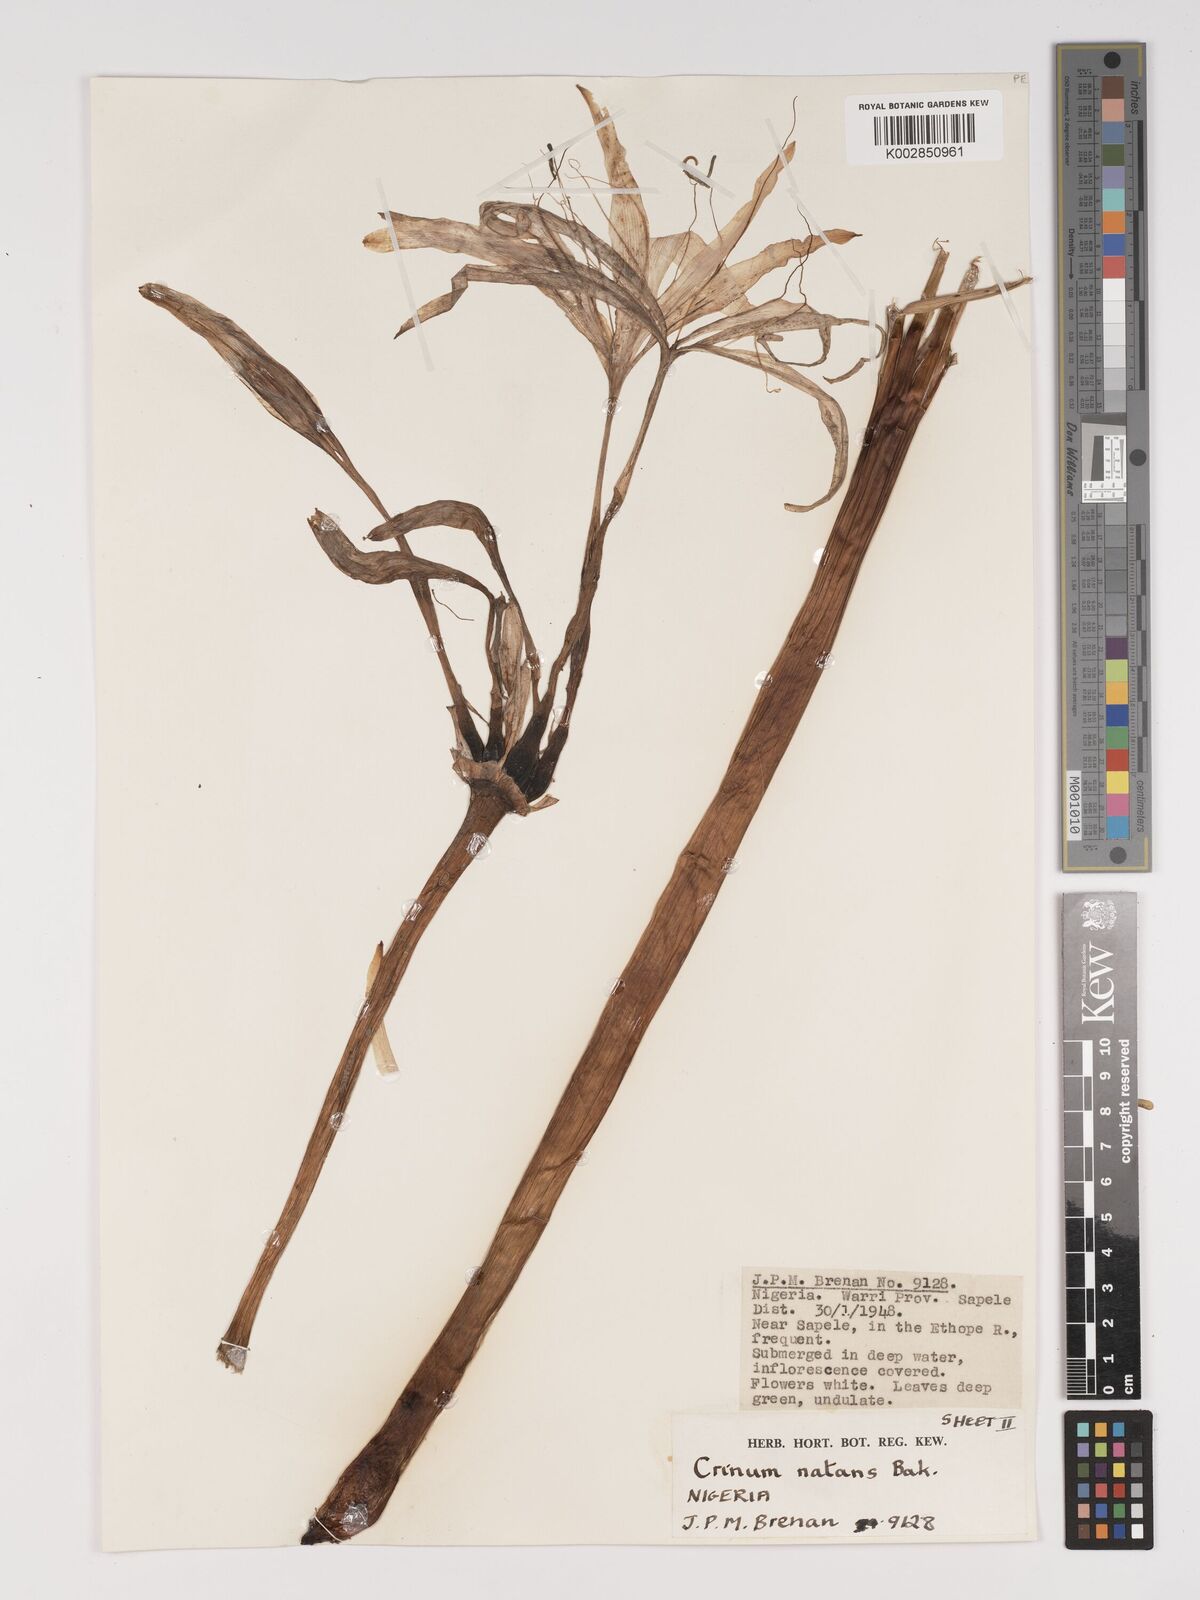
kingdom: Plantae
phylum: Tracheophyta
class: Liliopsida
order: Asparagales
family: Amaryllidaceae
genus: Crinum
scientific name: Crinum natans
